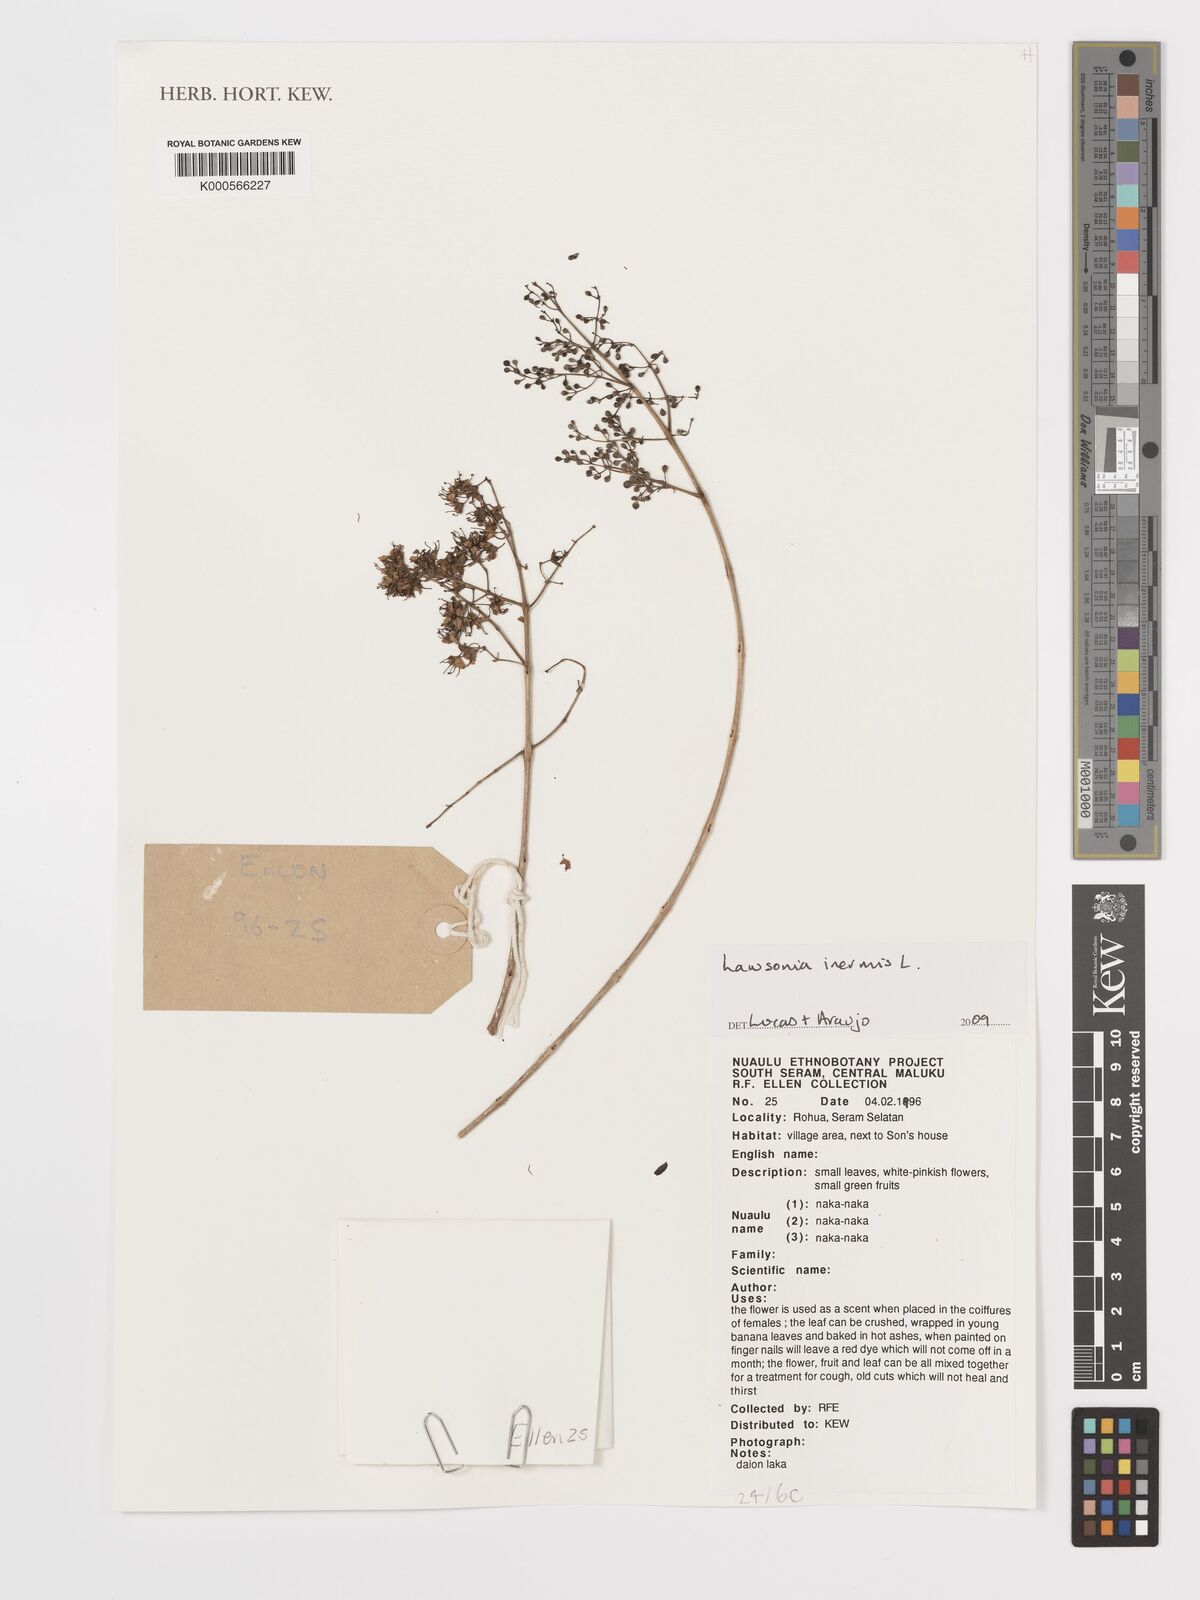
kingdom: Plantae
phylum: Tracheophyta
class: Magnoliopsida
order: Myrtales
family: Lythraceae
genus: Lawsonia
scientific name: Lawsonia inermis
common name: Henna
